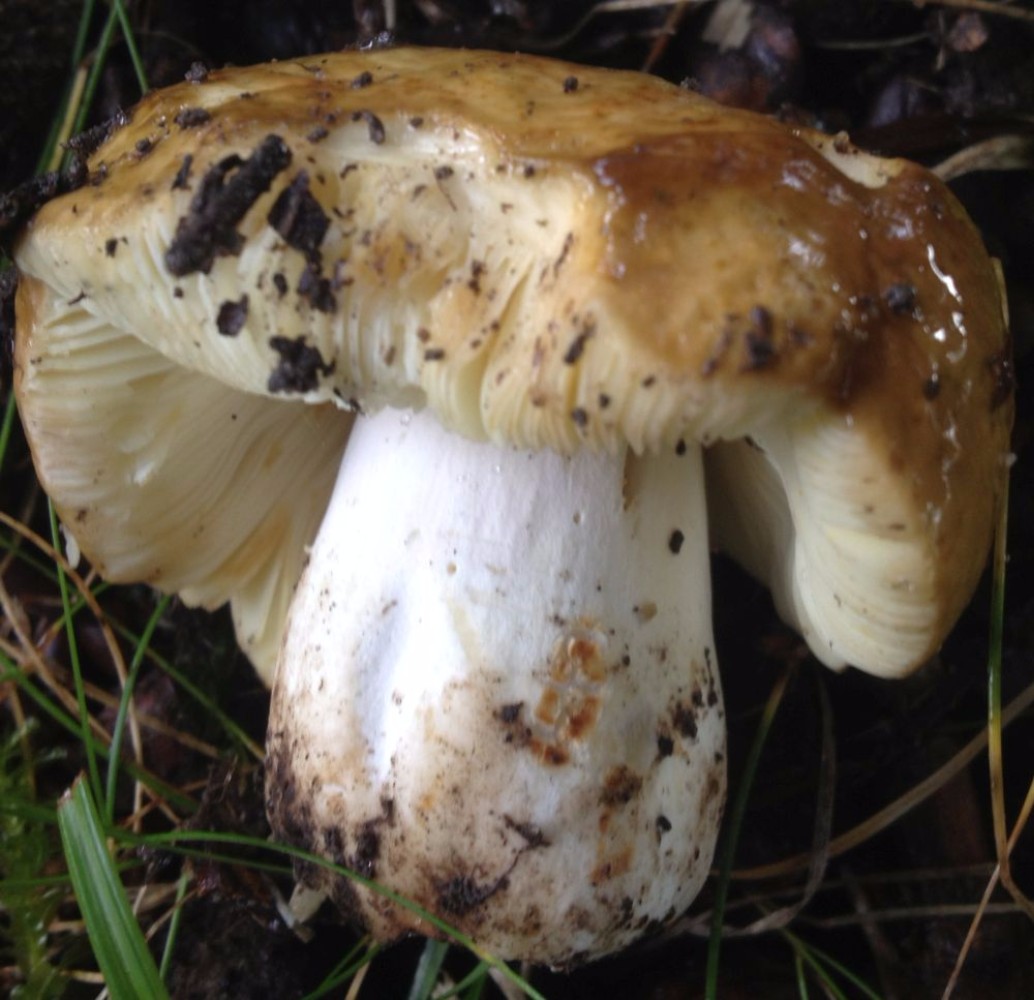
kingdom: Fungi
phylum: Basidiomycota
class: Agaricomycetes
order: Russulales
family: Russulaceae
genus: Russula
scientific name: Russula foetens
